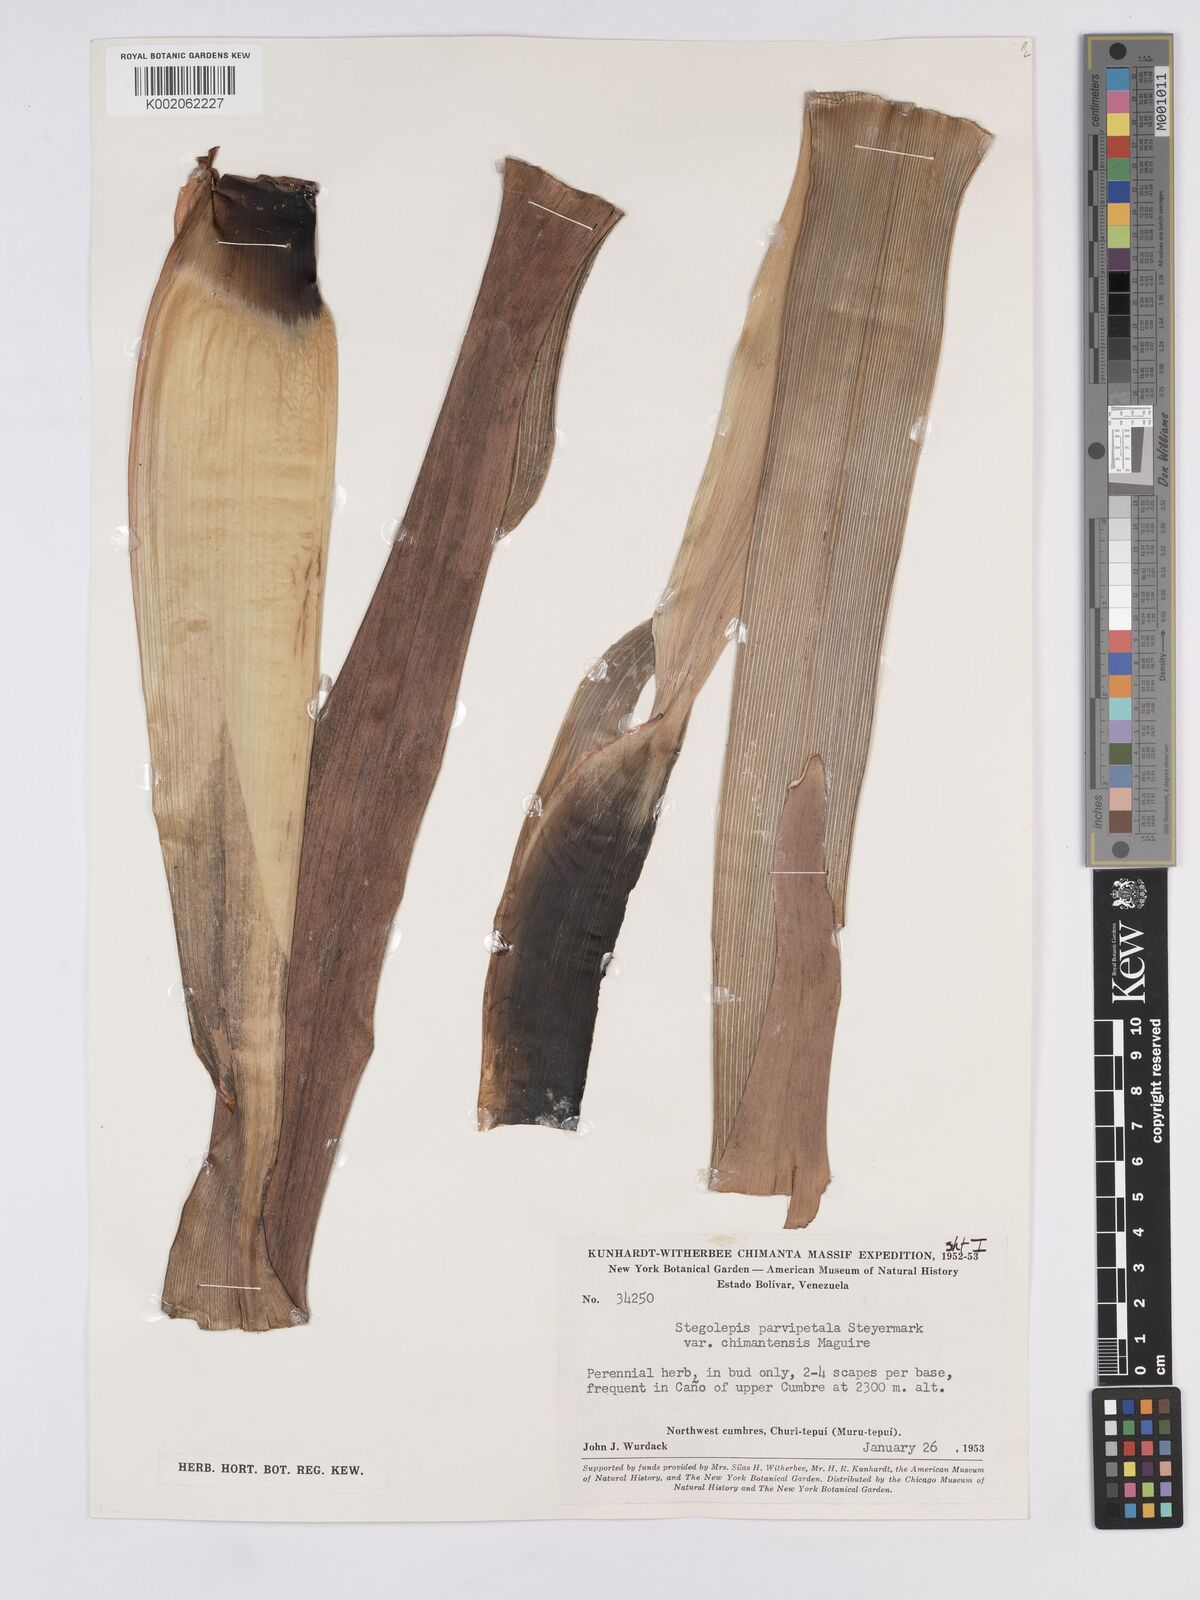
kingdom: Plantae
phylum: Tracheophyta
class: Liliopsida
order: Poales
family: Rapateaceae
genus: Stegolepis
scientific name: Stegolepis parvipetala
